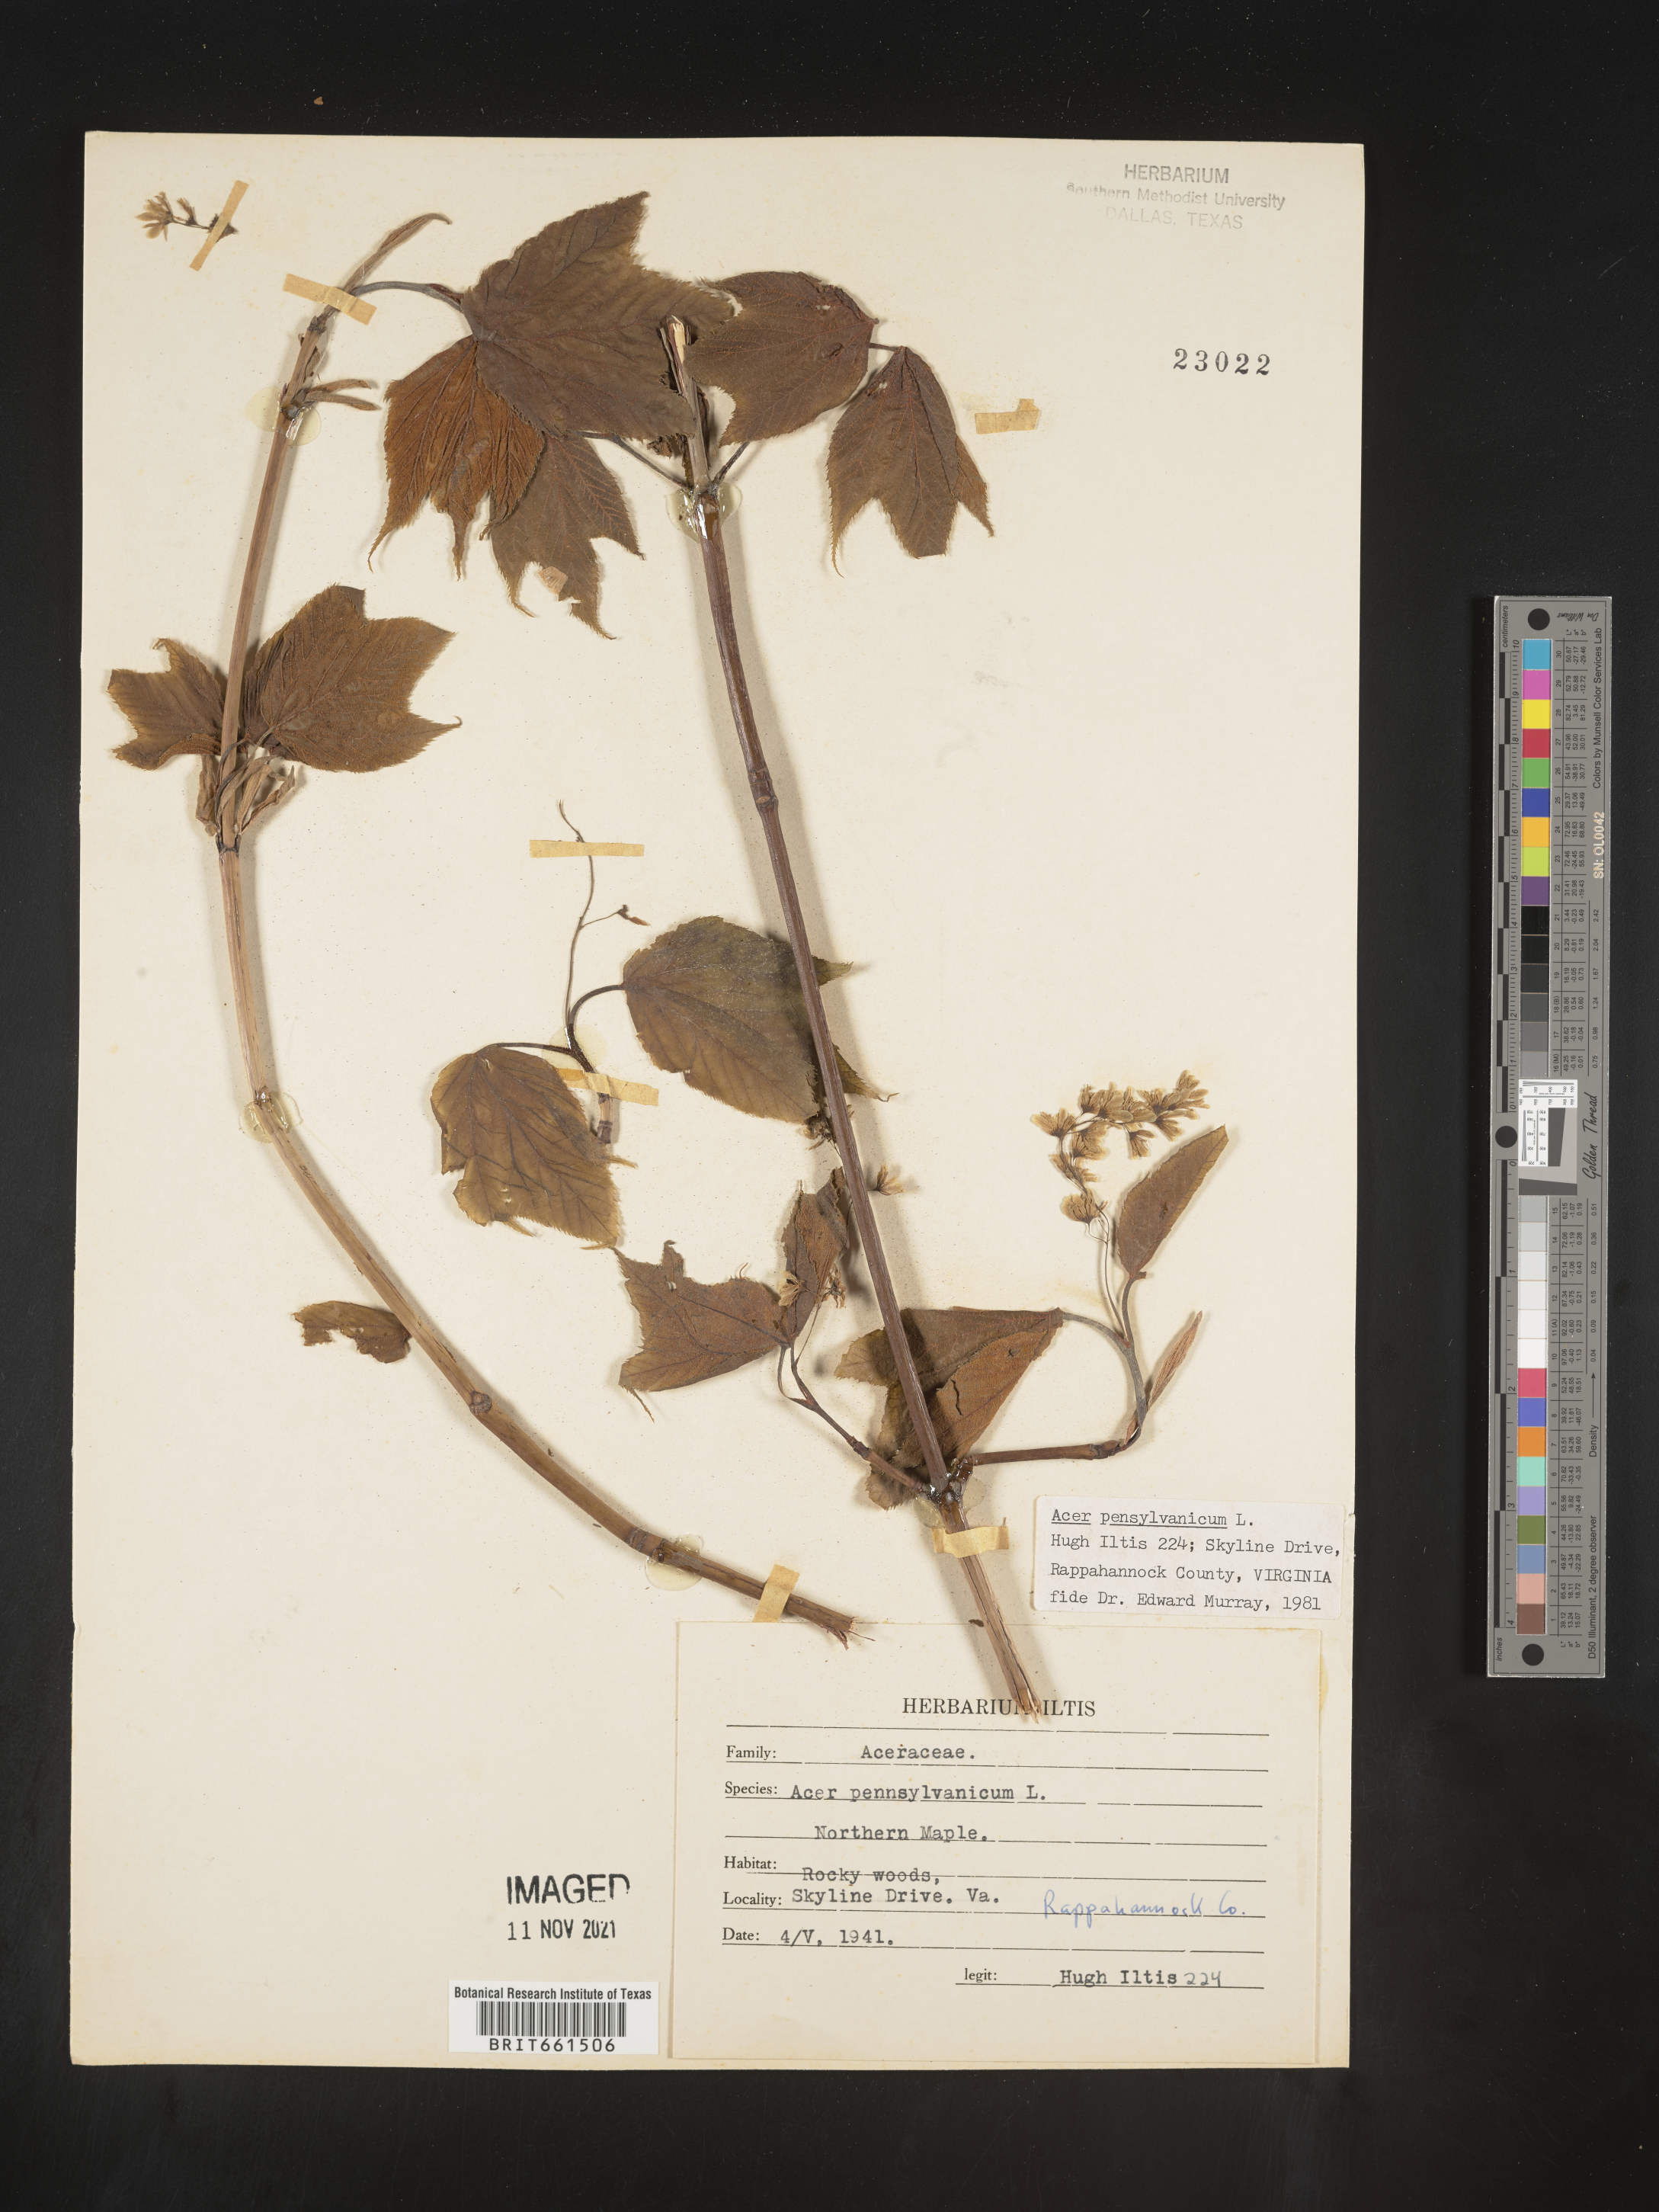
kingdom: Plantae
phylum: Tracheophyta
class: Magnoliopsida
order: Sapindales
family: Sapindaceae
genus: Acer
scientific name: Acer pensylvanicum
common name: Moosewood
